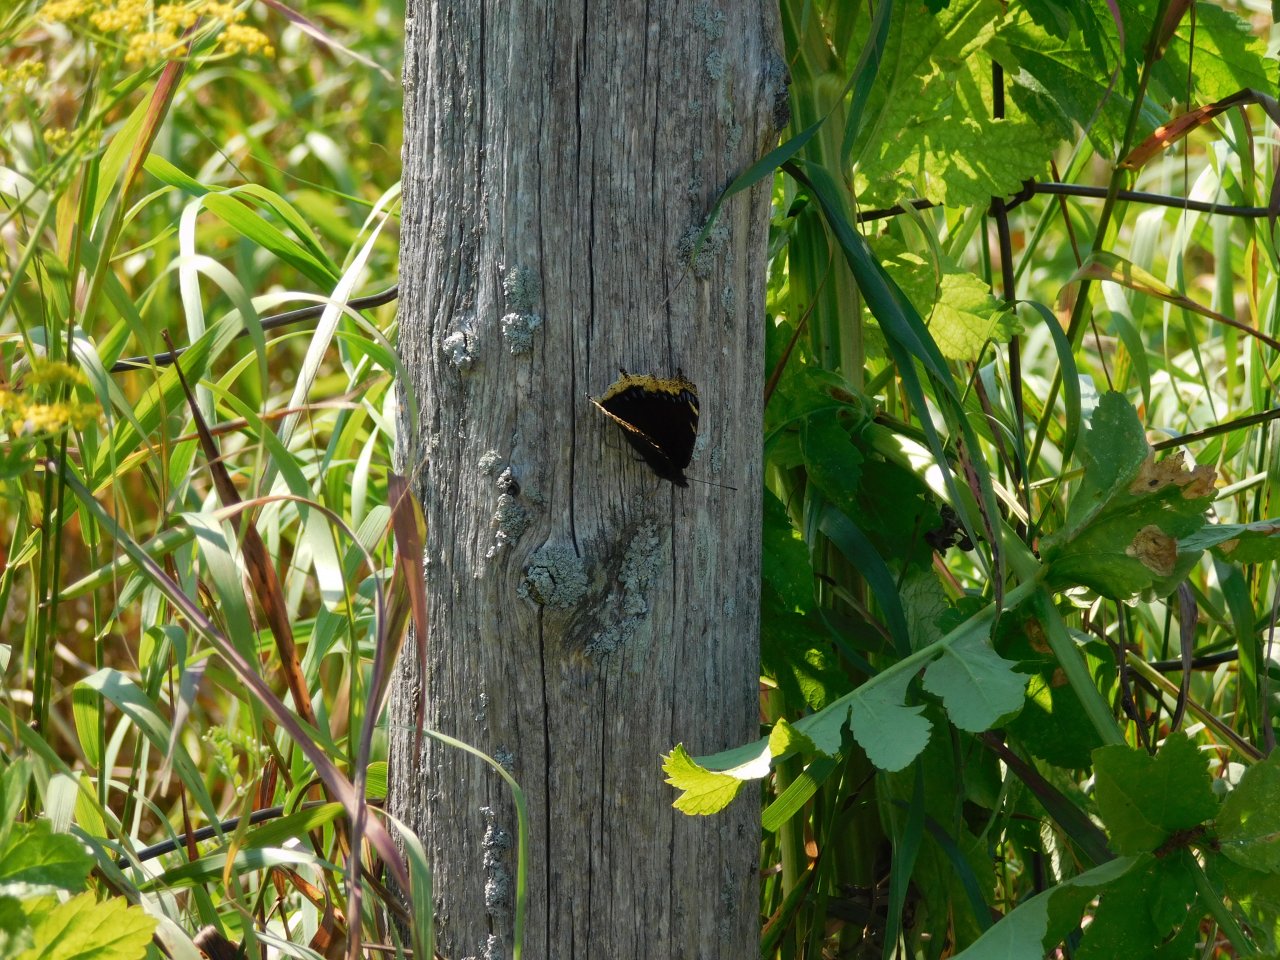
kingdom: Animalia
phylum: Arthropoda
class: Insecta
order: Lepidoptera
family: Nymphalidae
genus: Nymphalis
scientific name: Nymphalis antiopa
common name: Mourning Cloak
